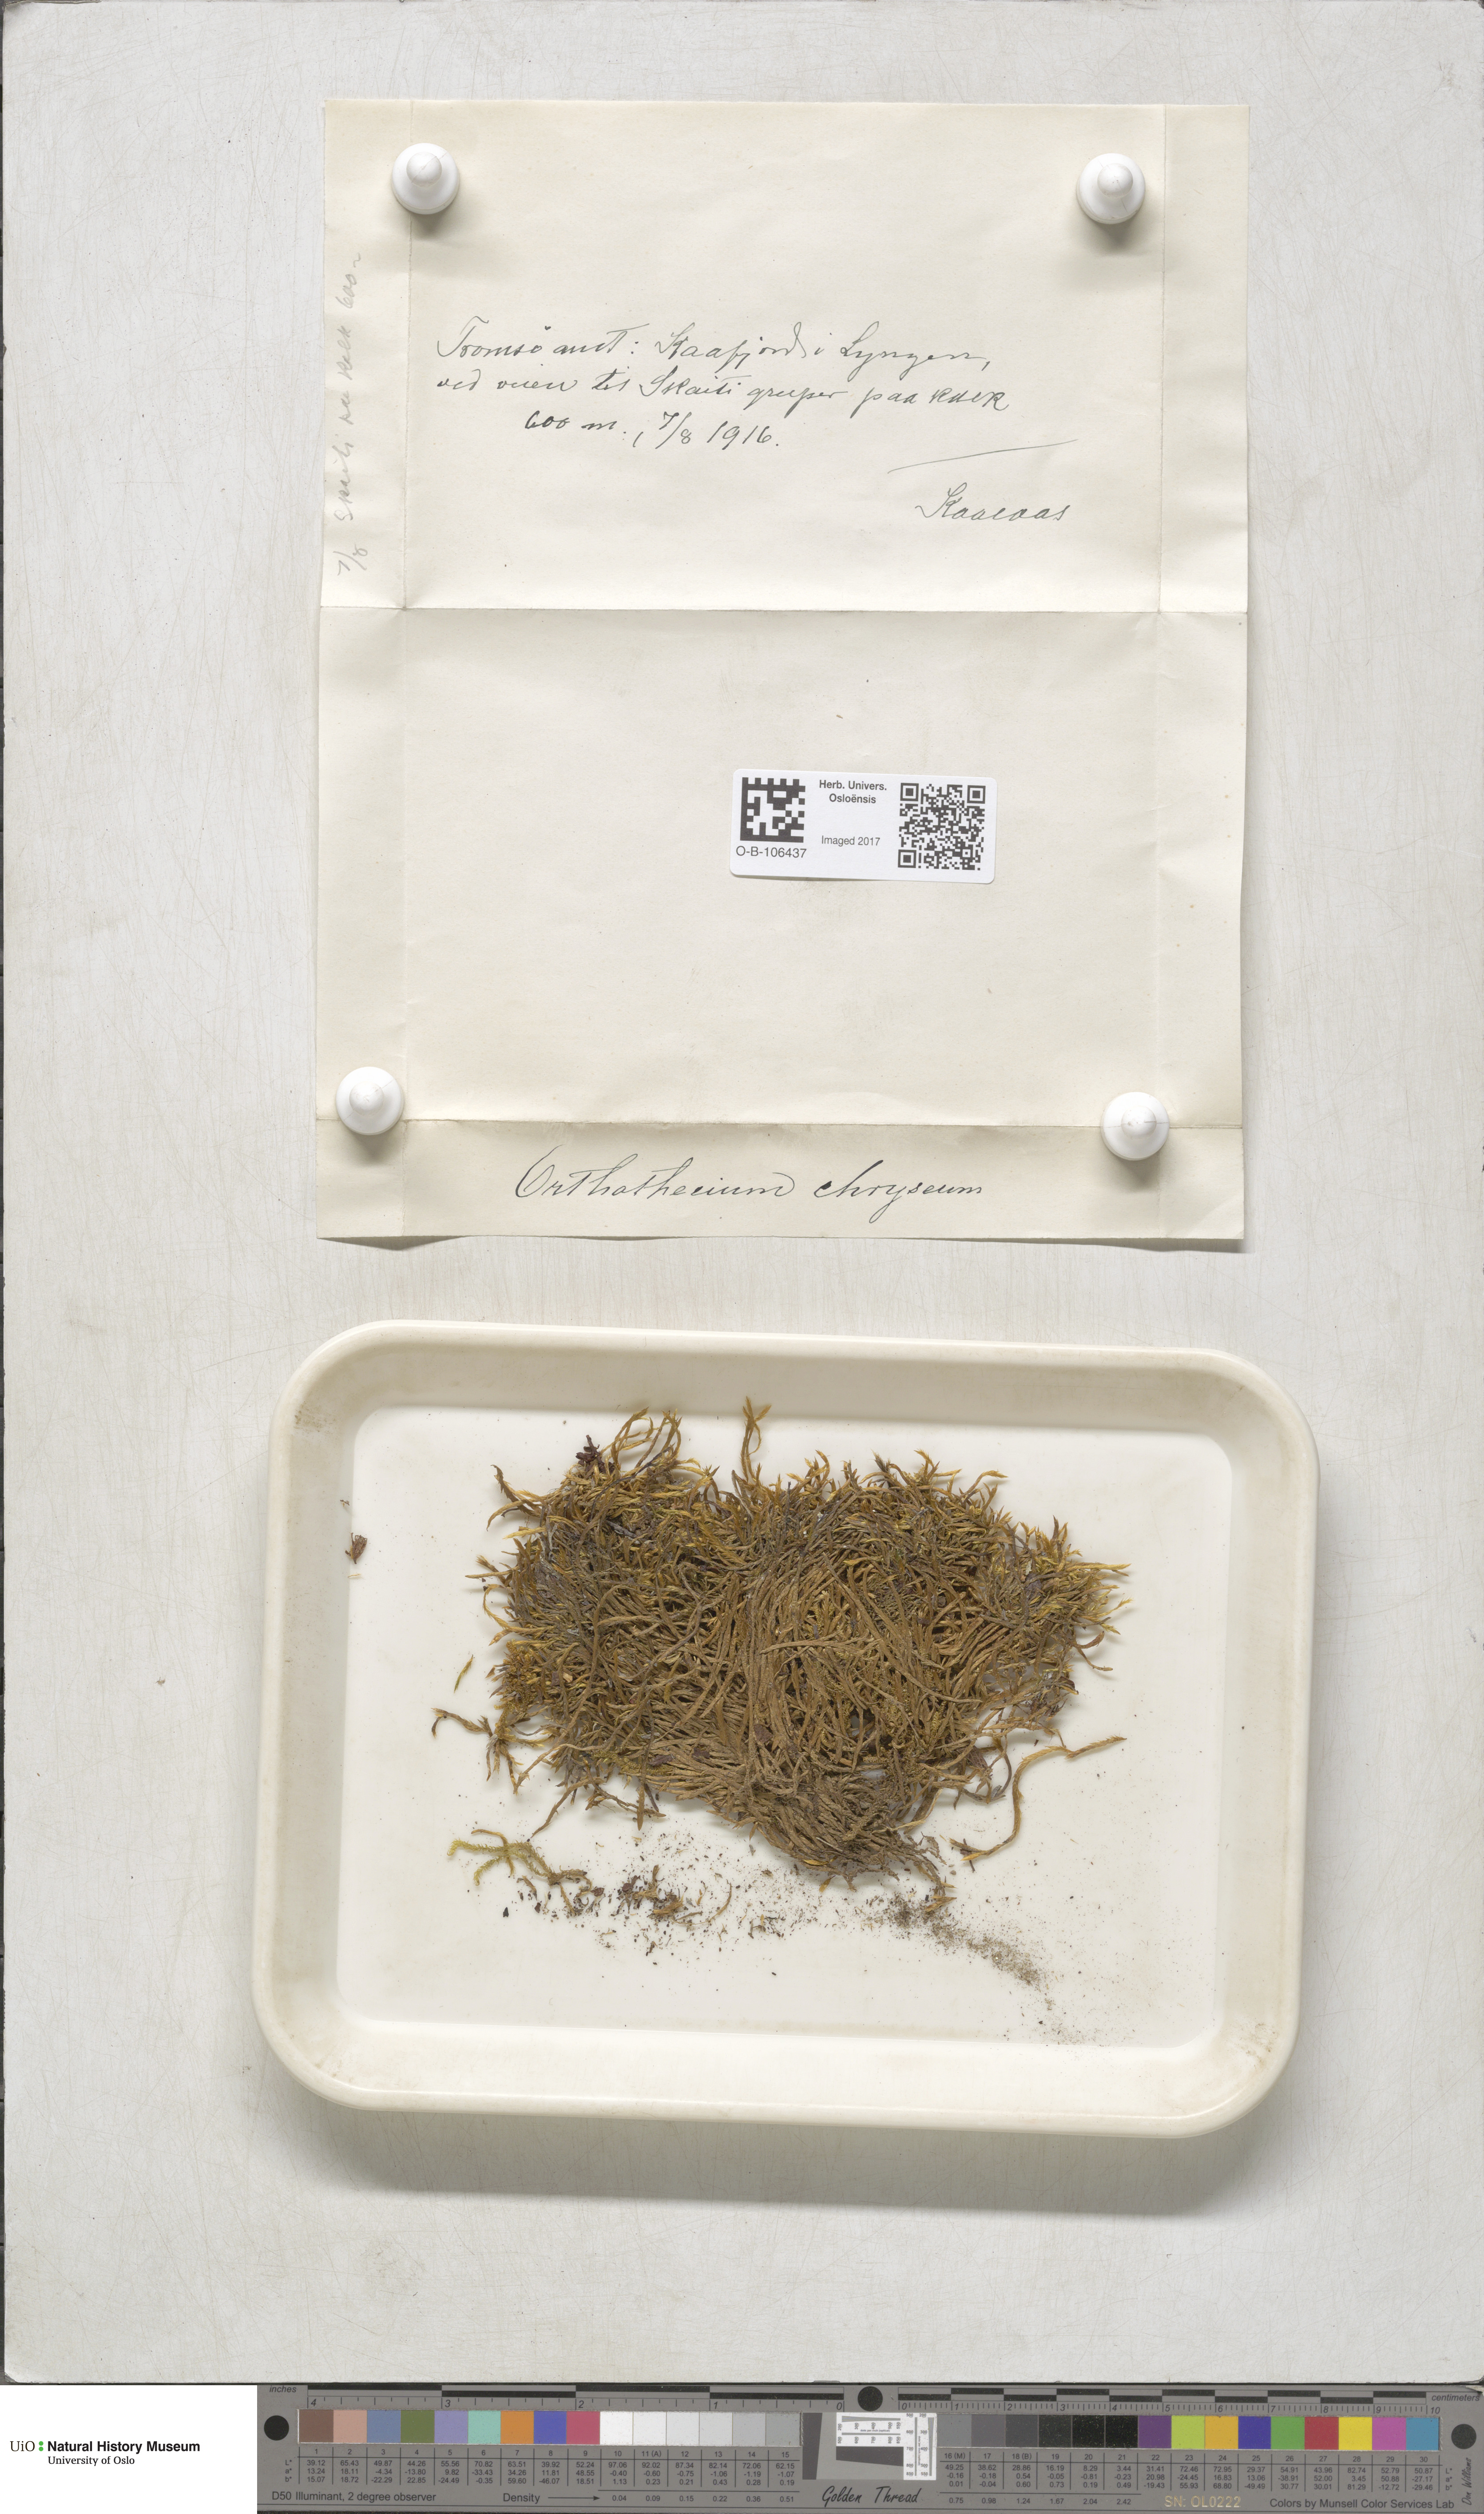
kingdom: Plantae
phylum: Bryophyta
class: Bryopsida
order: Hypnales
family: Plagiotheciaceae
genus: Orthothecium
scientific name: Orthothecium chryseon
